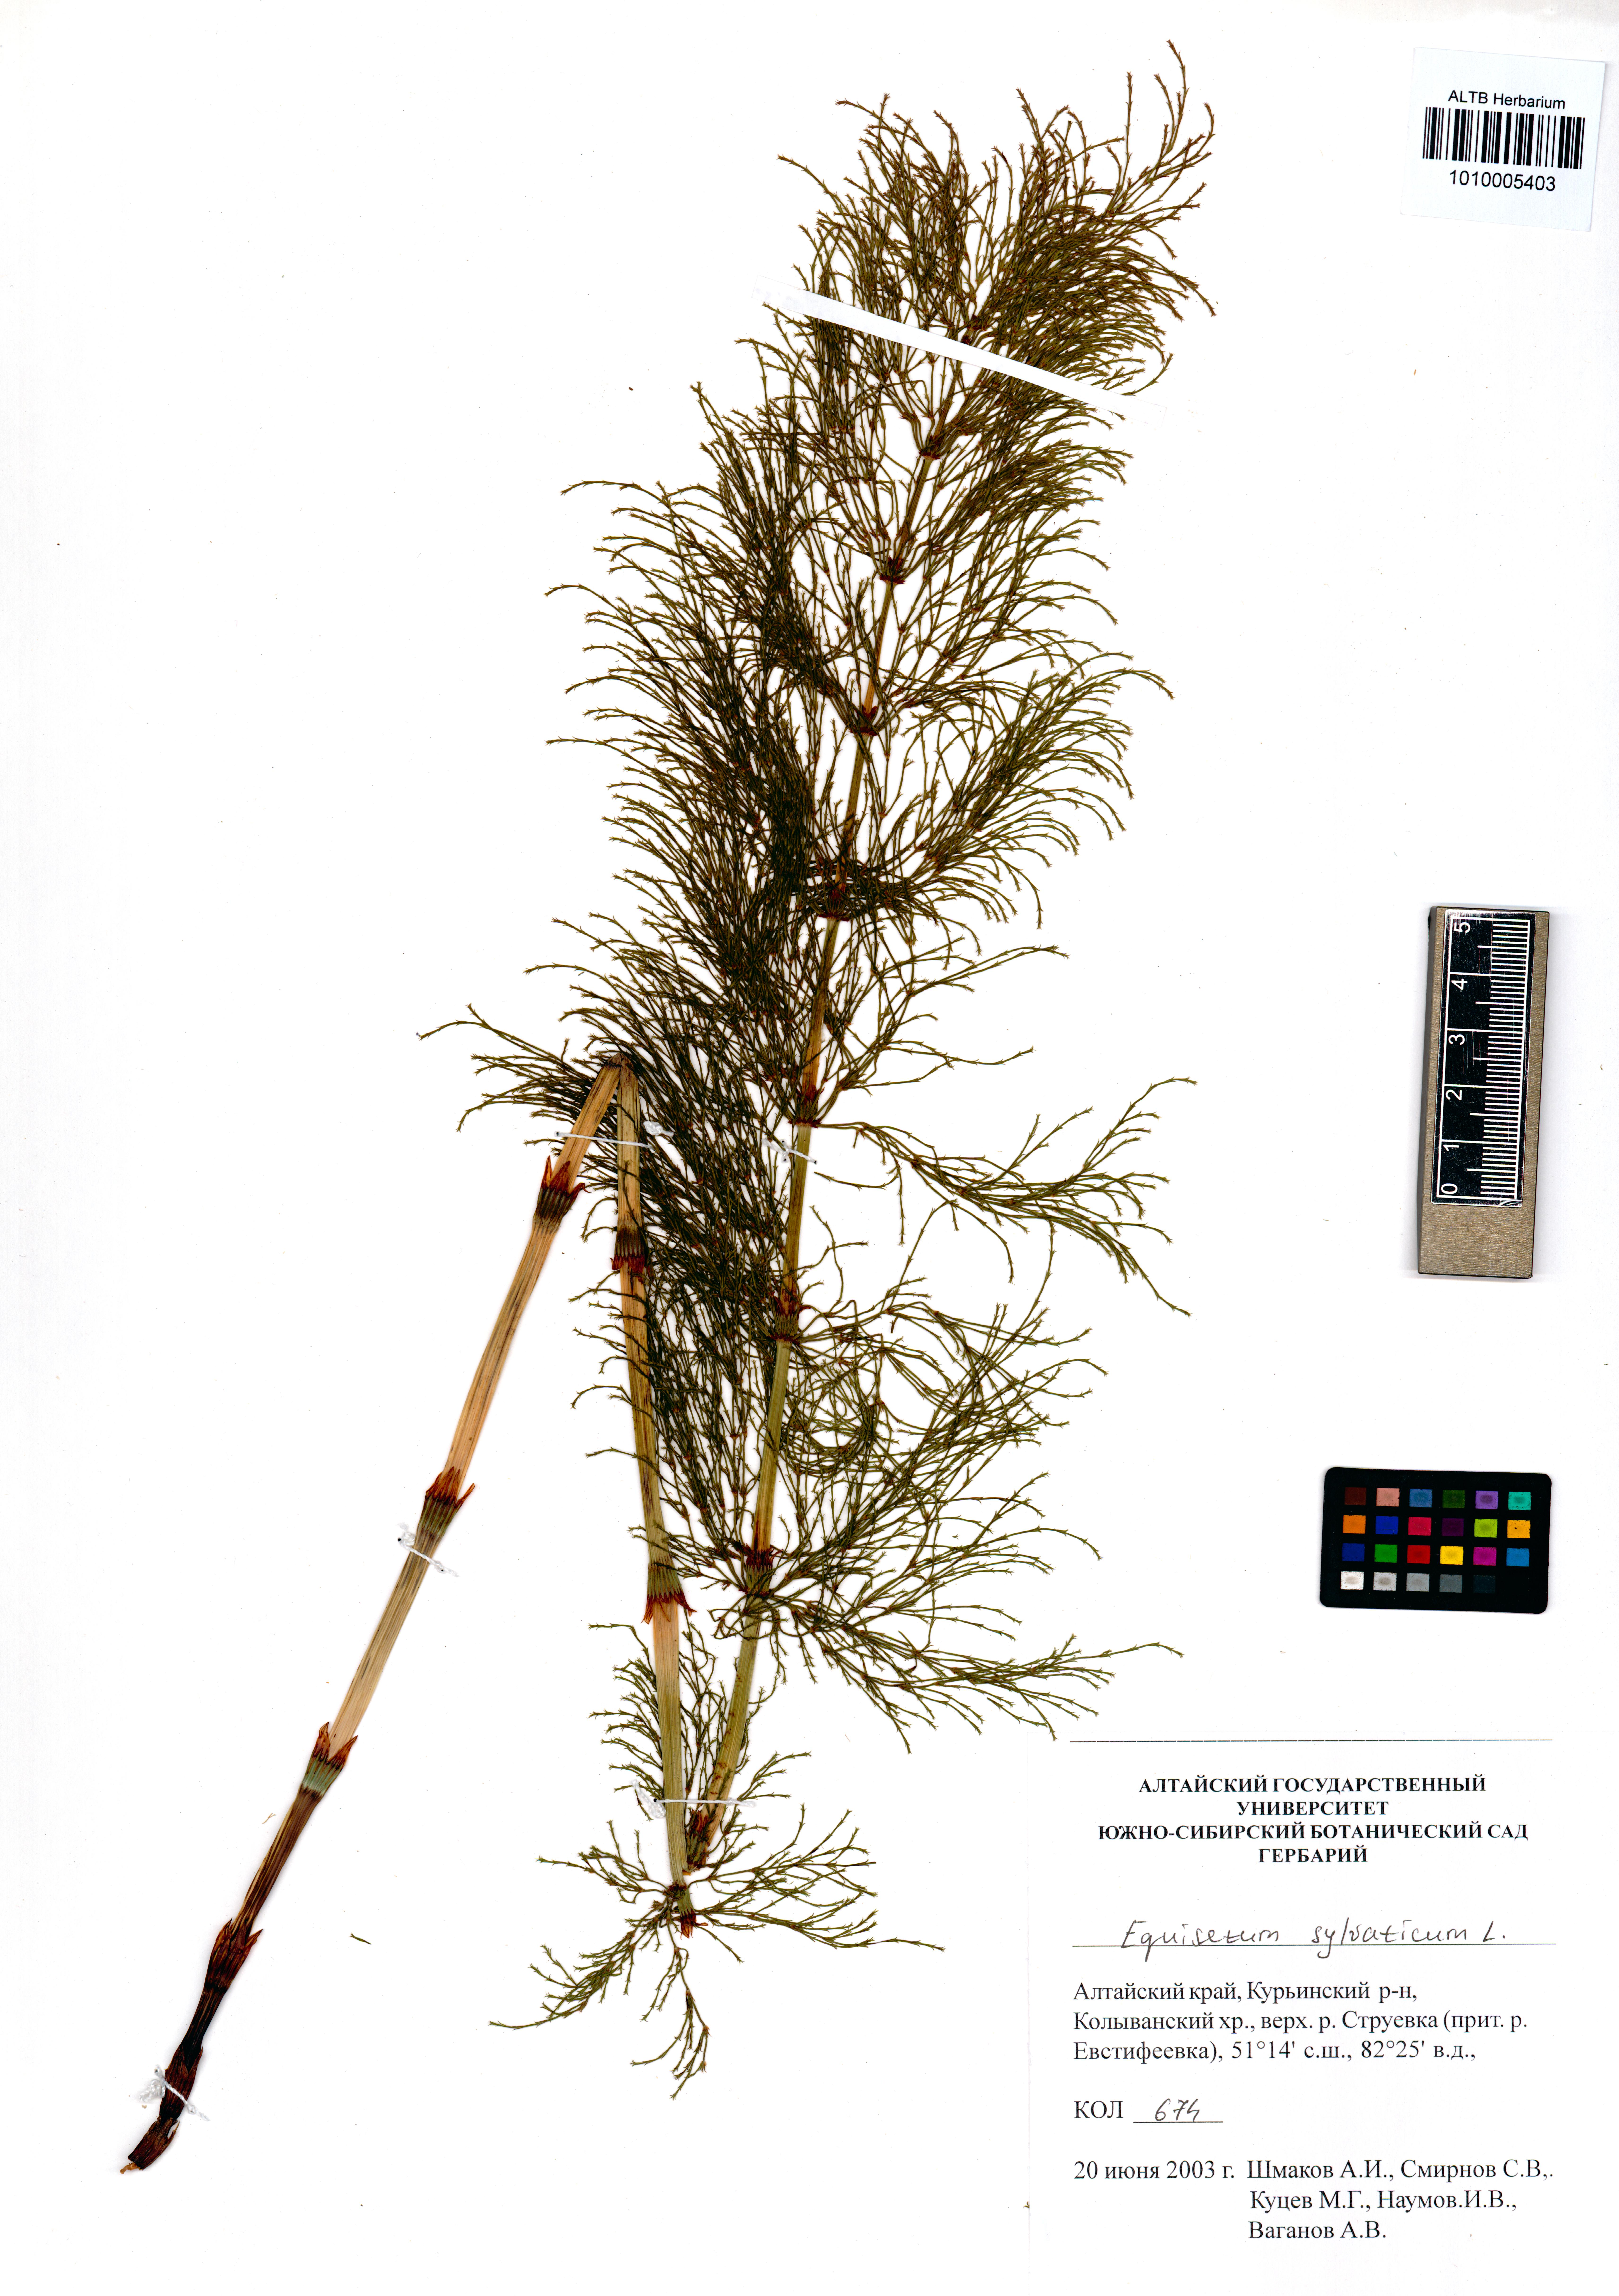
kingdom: Plantae
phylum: Tracheophyta
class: Polypodiopsida
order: Equisetales
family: Equisetaceae
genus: Equisetum
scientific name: Equisetum sylvaticum
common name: Wood horsetail
